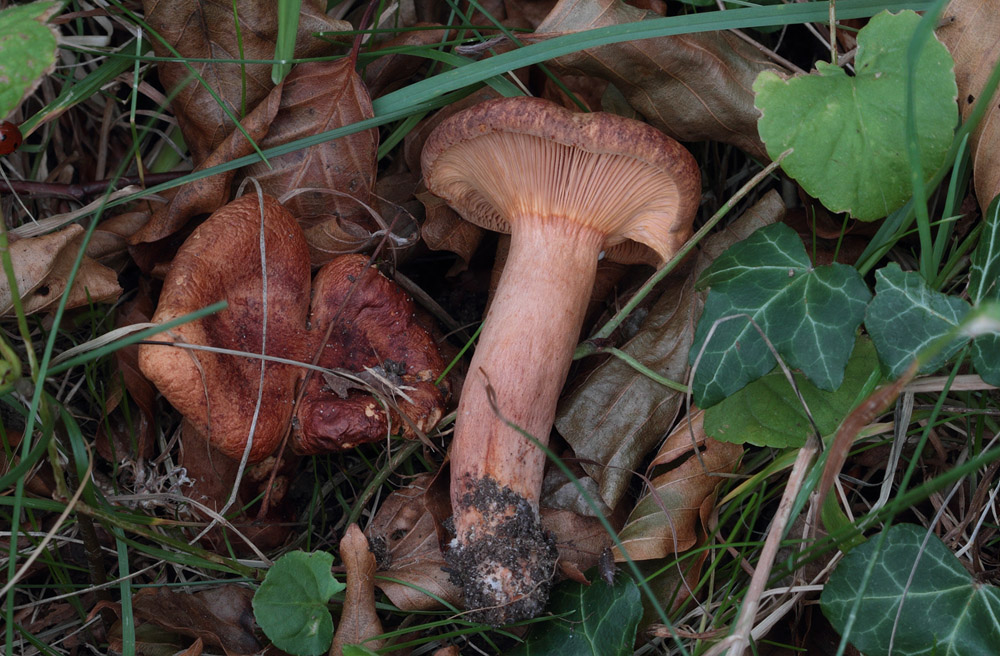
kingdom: Fungi
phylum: Basidiomycota
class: Agaricomycetes
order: Russulales
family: Russulaceae
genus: Lactarius
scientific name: Lactarius rubrocinctus
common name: halsbånd-mælkehat
